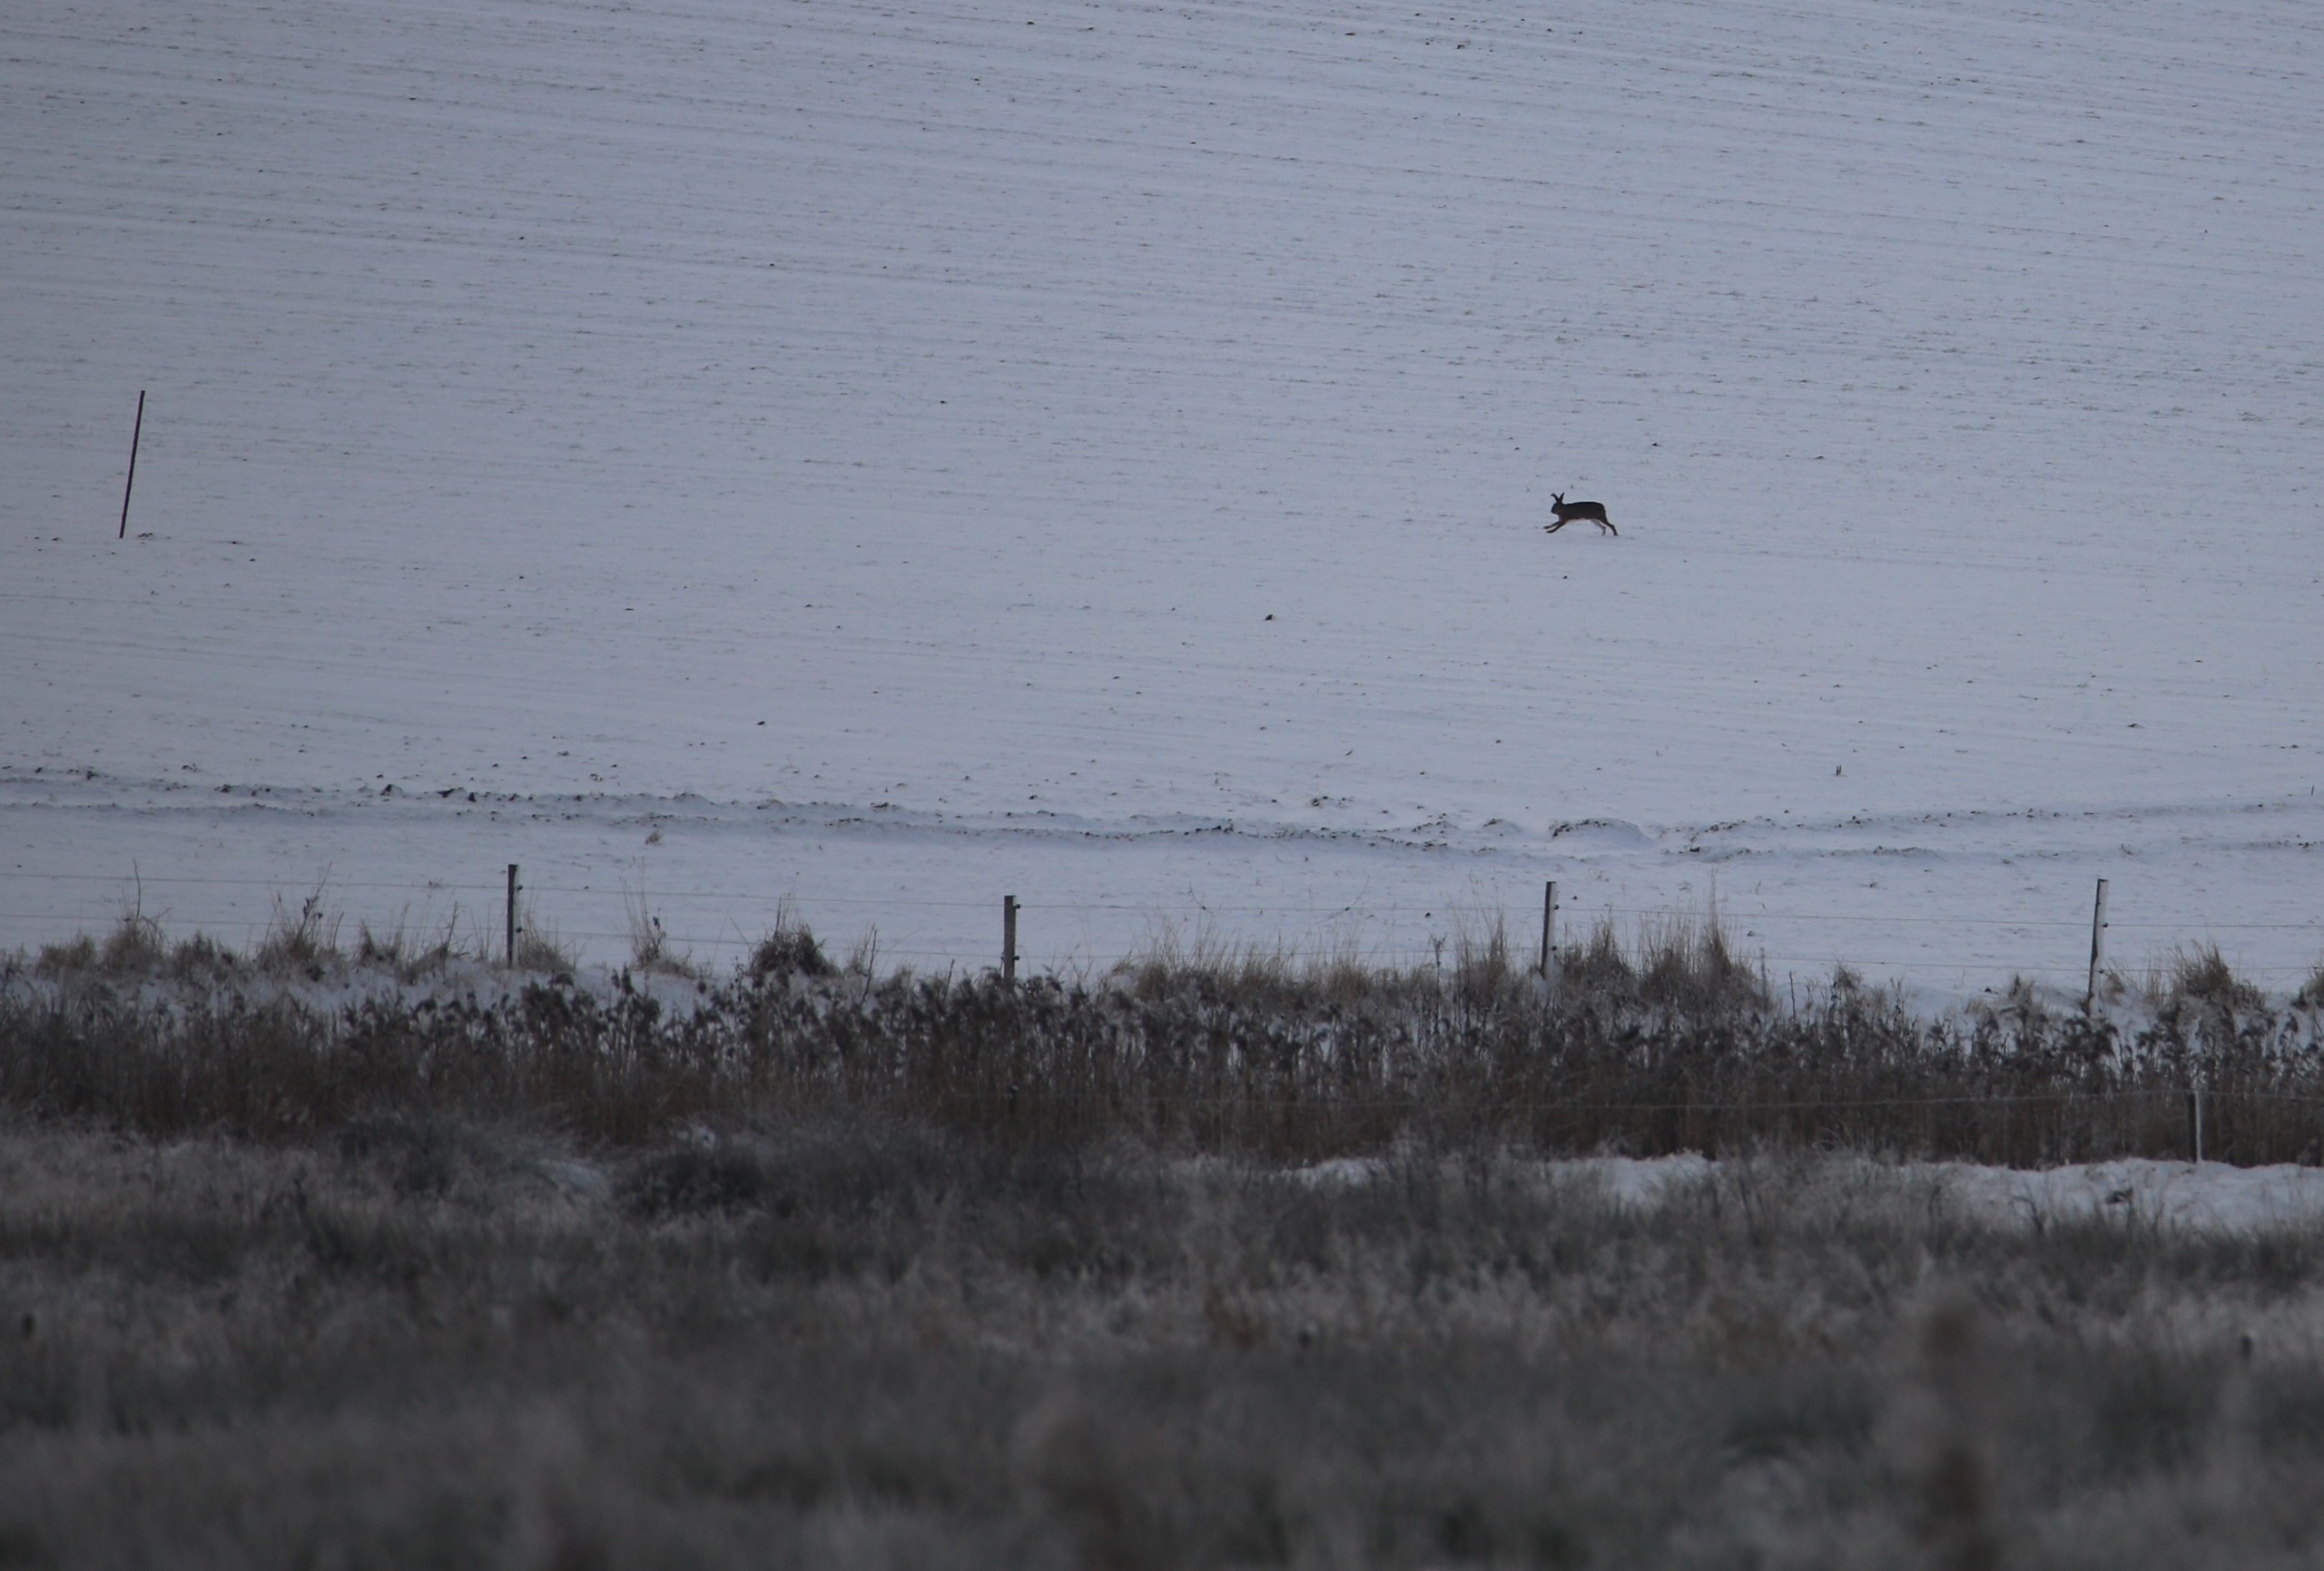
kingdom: Animalia
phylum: Chordata
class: Mammalia
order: Lagomorpha
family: Leporidae
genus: Lepus
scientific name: Lepus europaeus
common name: Hare
